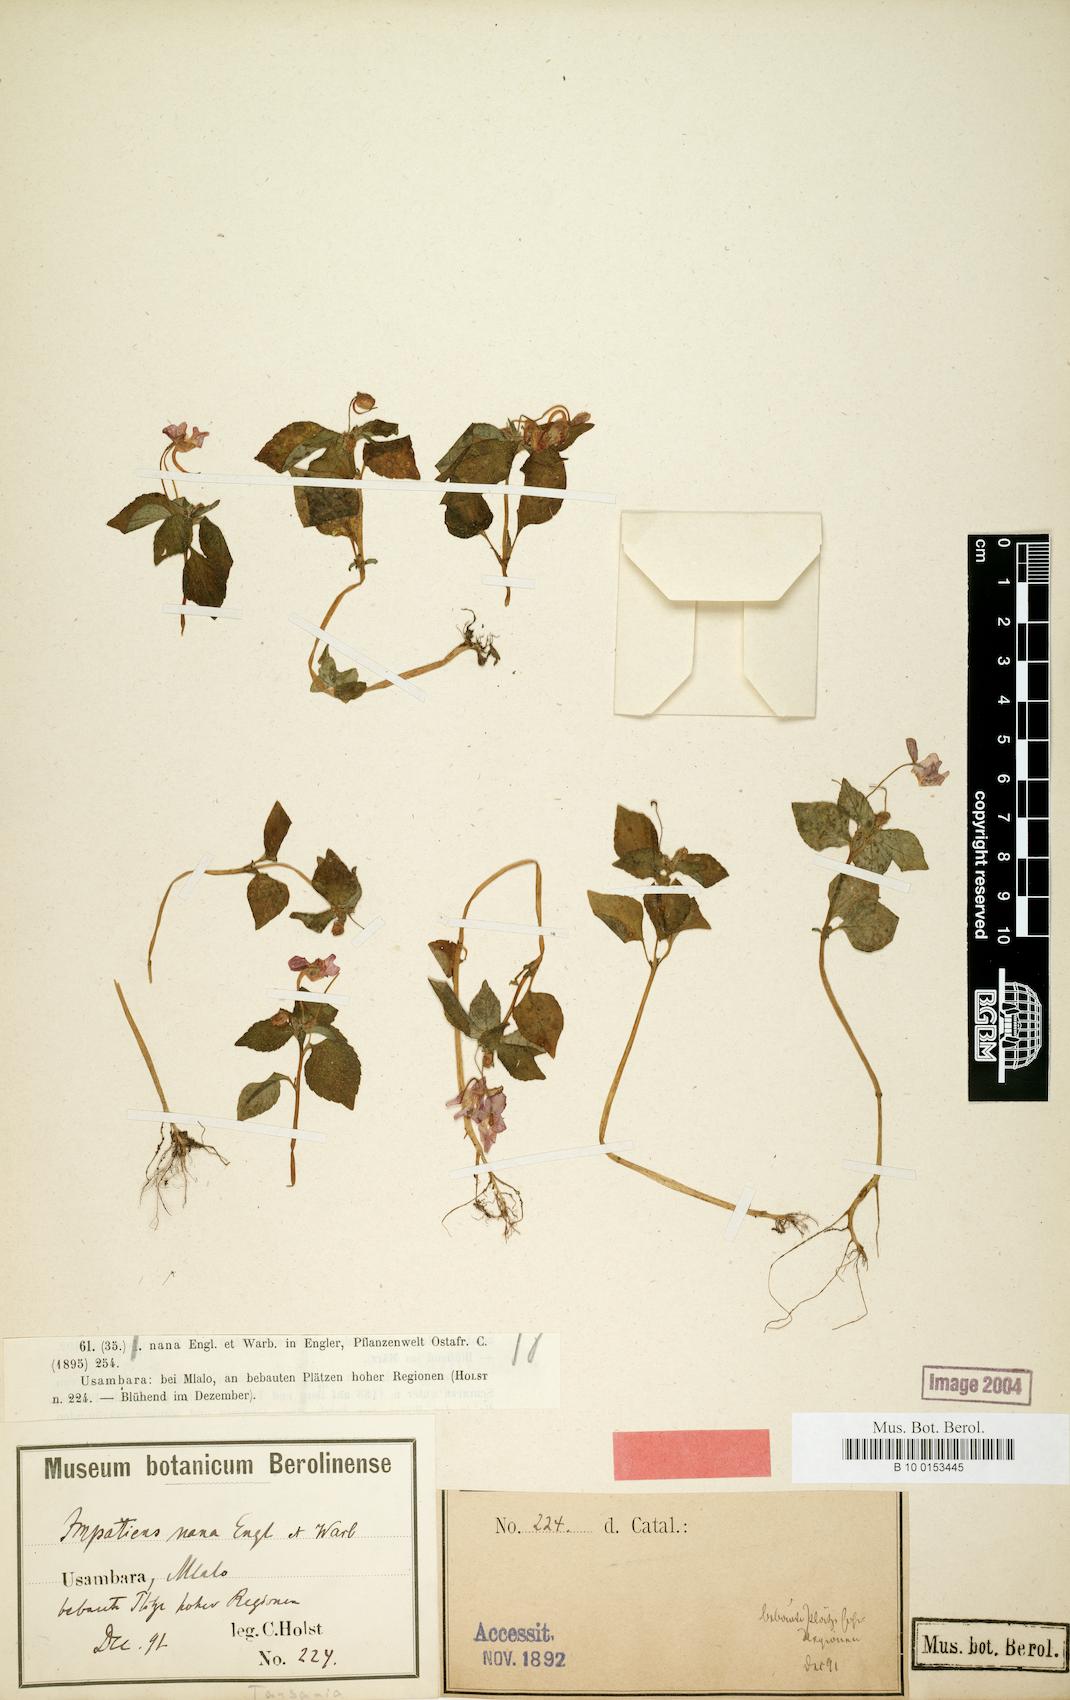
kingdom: Plantae
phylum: Tracheophyta
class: Magnoliopsida
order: Ericales
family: Balsaminaceae
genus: Impatiens
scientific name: Impatiens nana
